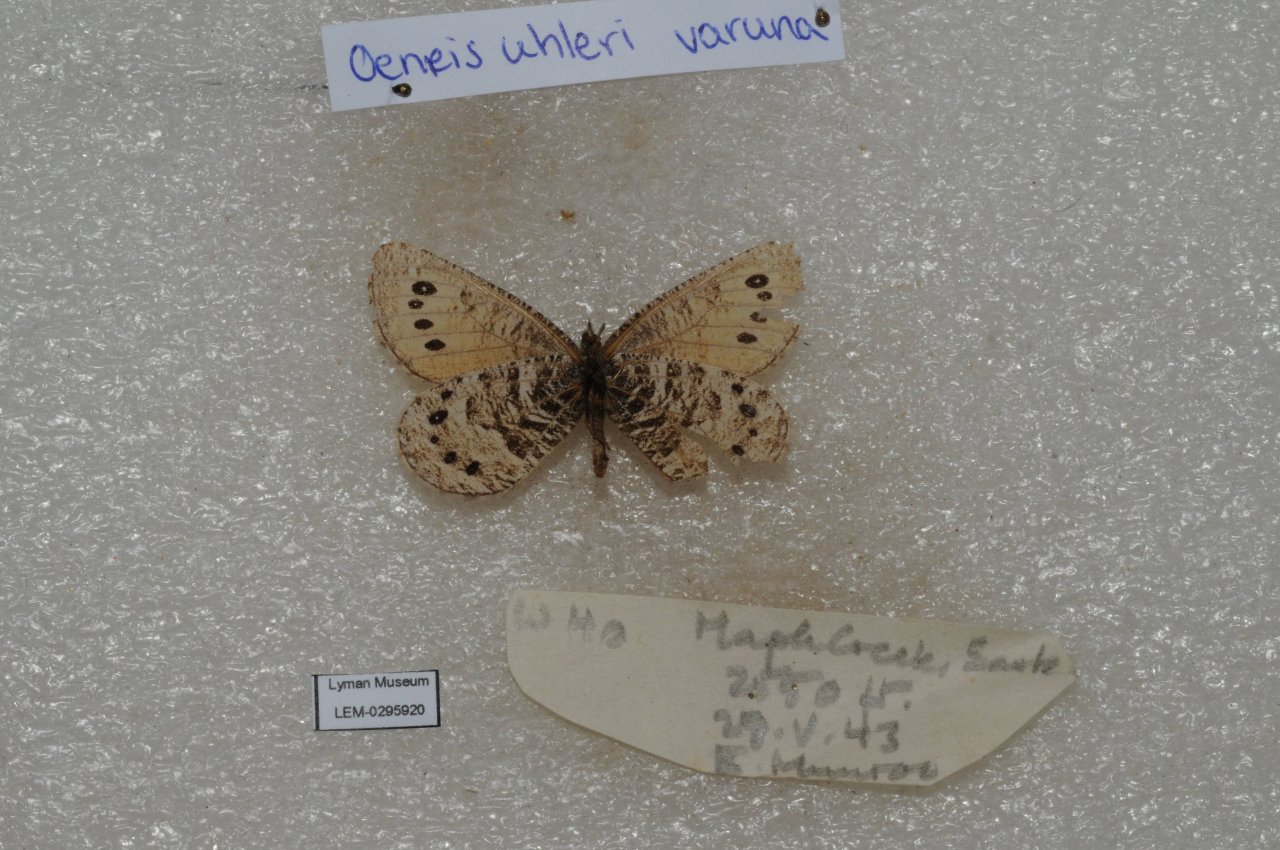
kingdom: Animalia
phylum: Arthropoda
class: Insecta
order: Lepidoptera
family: Nymphalidae
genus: Oeneis
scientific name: Oeneis uhleri
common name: Uhler's Arctic
